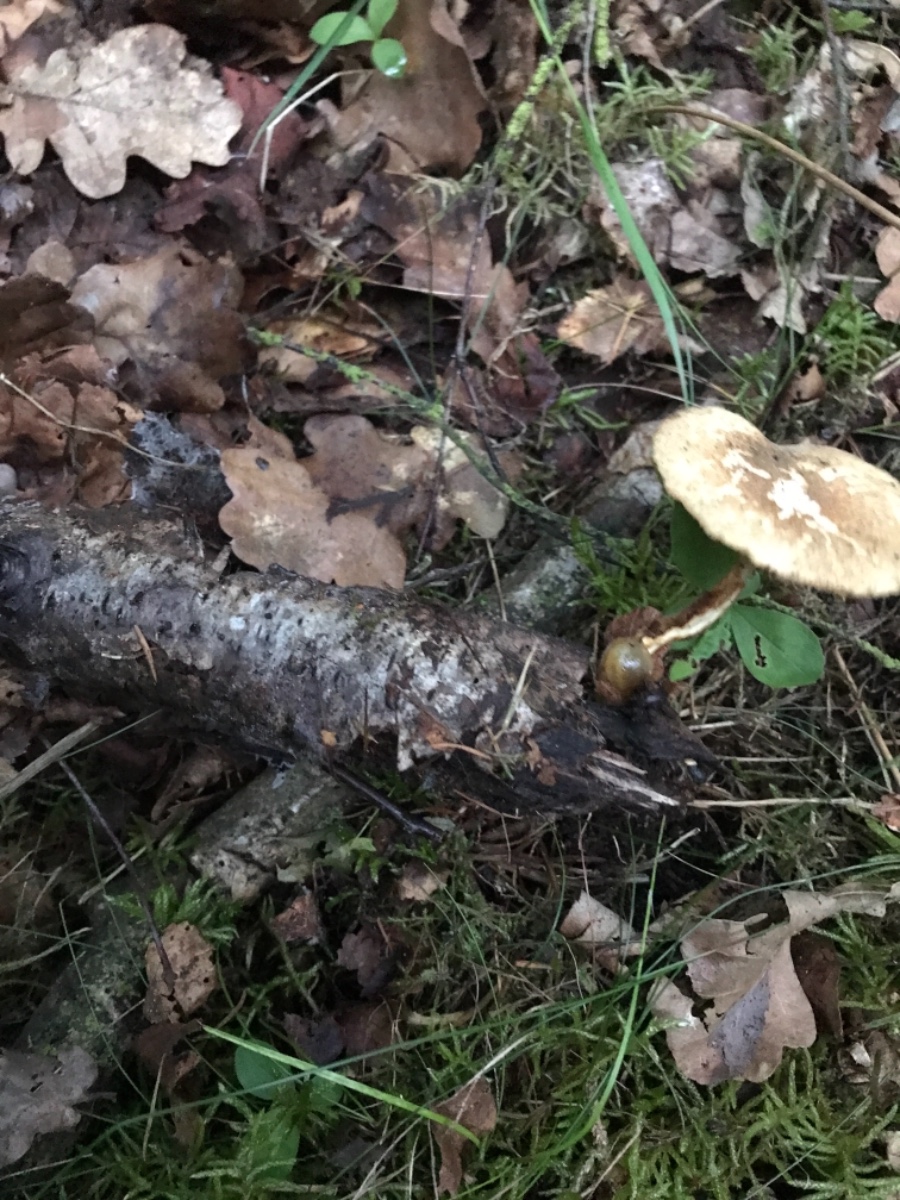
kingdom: Fungi
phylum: Basidiomycota
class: Agaricomycetes
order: Polyporales
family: Polyporaceae
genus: Lentinus
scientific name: Lentinus substrictus
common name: forårs-stilkporesvamp
